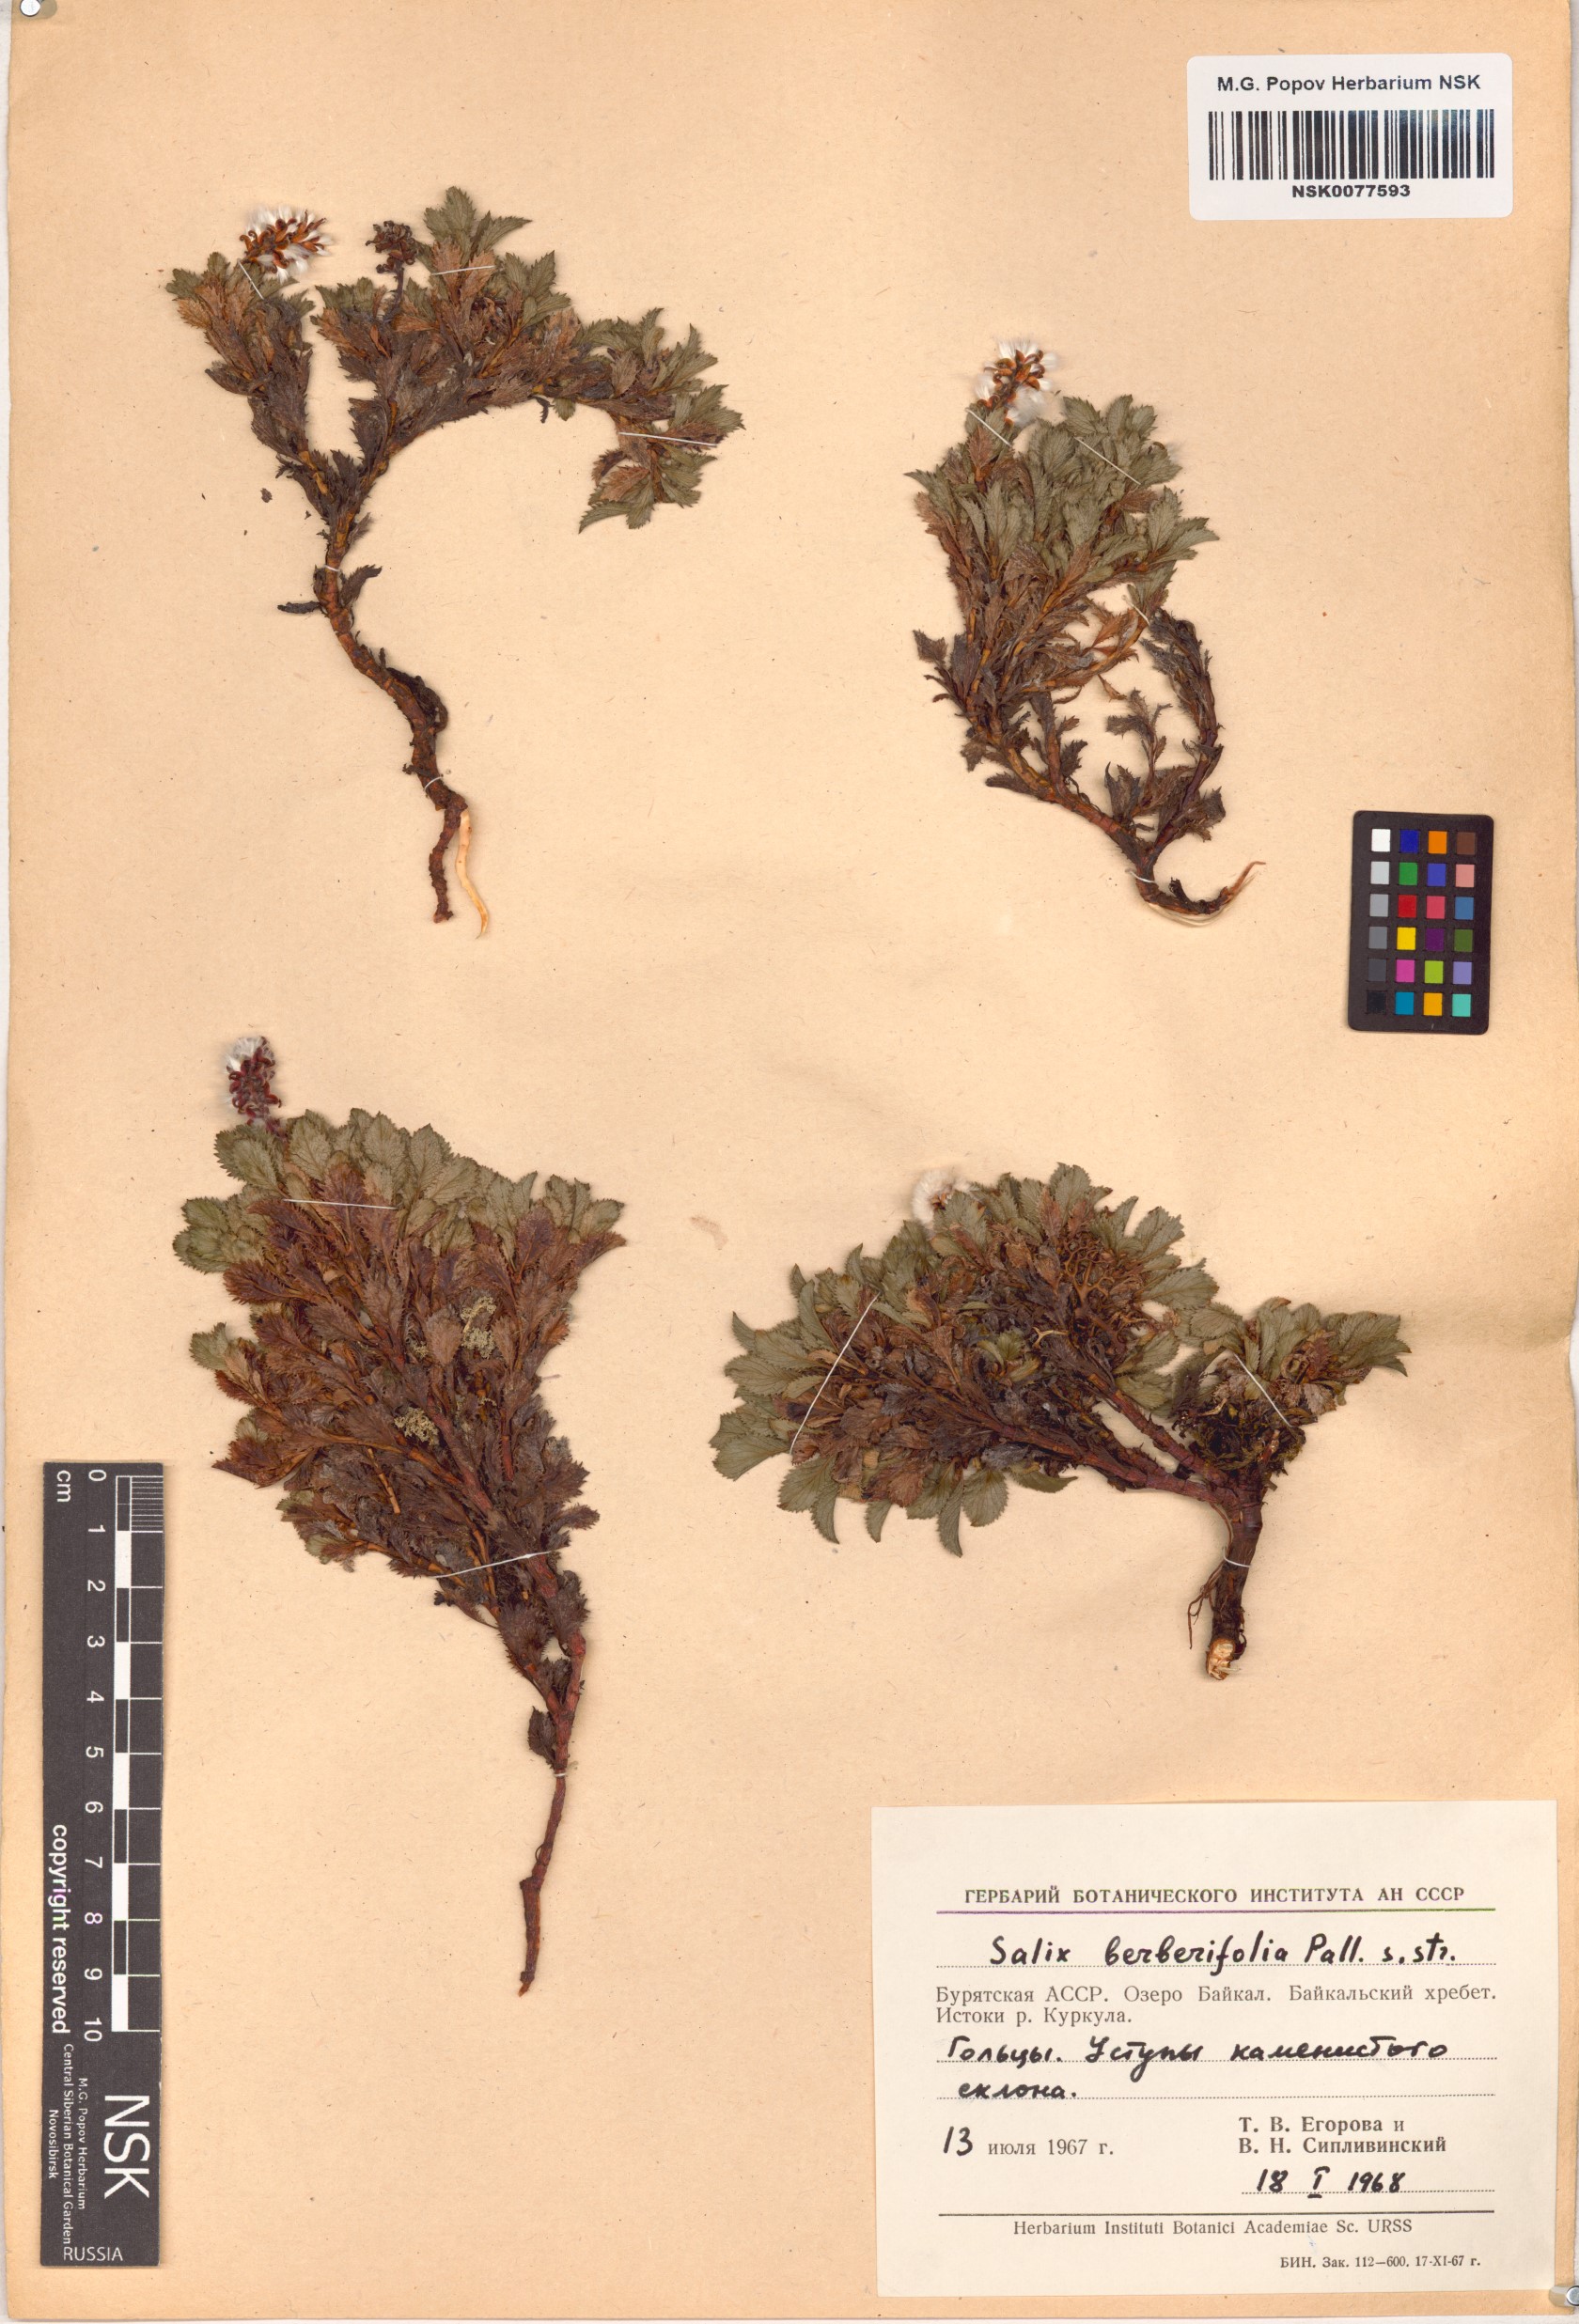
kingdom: Plantae
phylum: Tracheophyta
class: Magnoliopsida
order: Malpighiales
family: Salicaceae
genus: Salix
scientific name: Salix berberifolia
